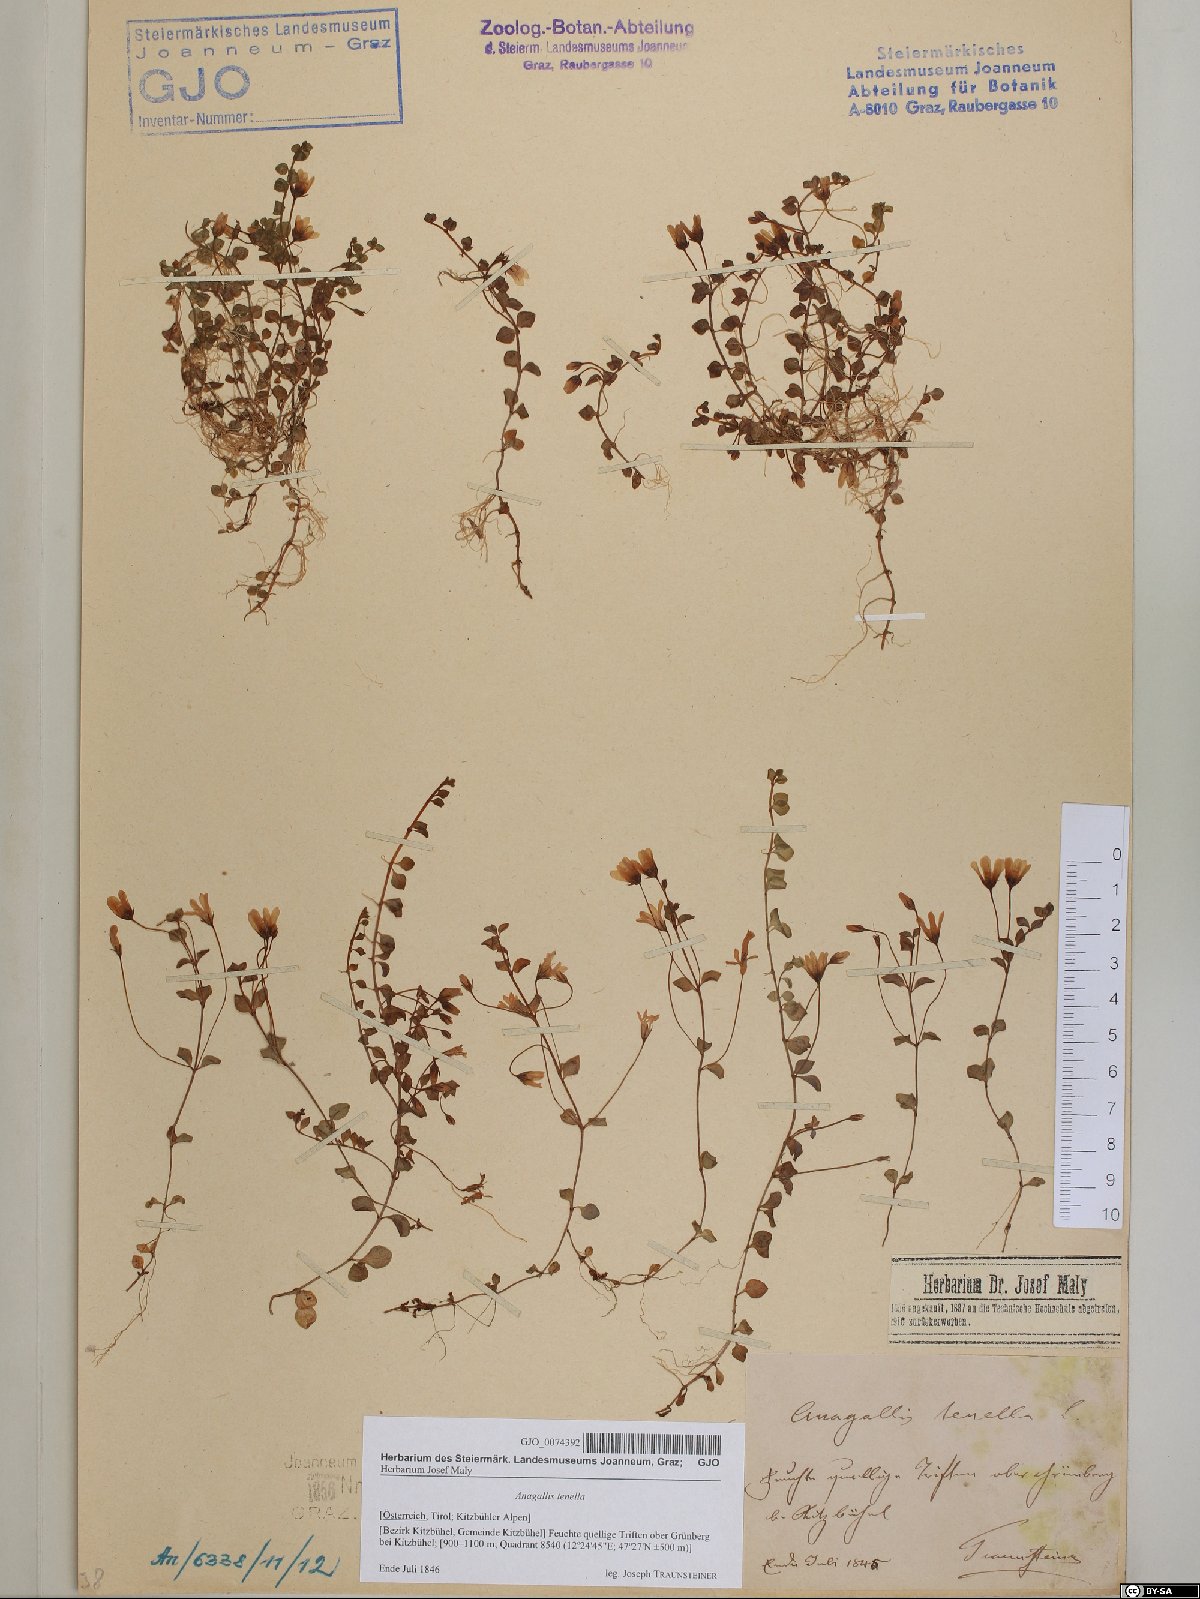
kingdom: Plantae
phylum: Tracheophyta
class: Magnoliopsida
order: Ericales
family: Primulaceae
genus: Lysimachia
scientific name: Lysimachia tenella
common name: European bog pimpernel
